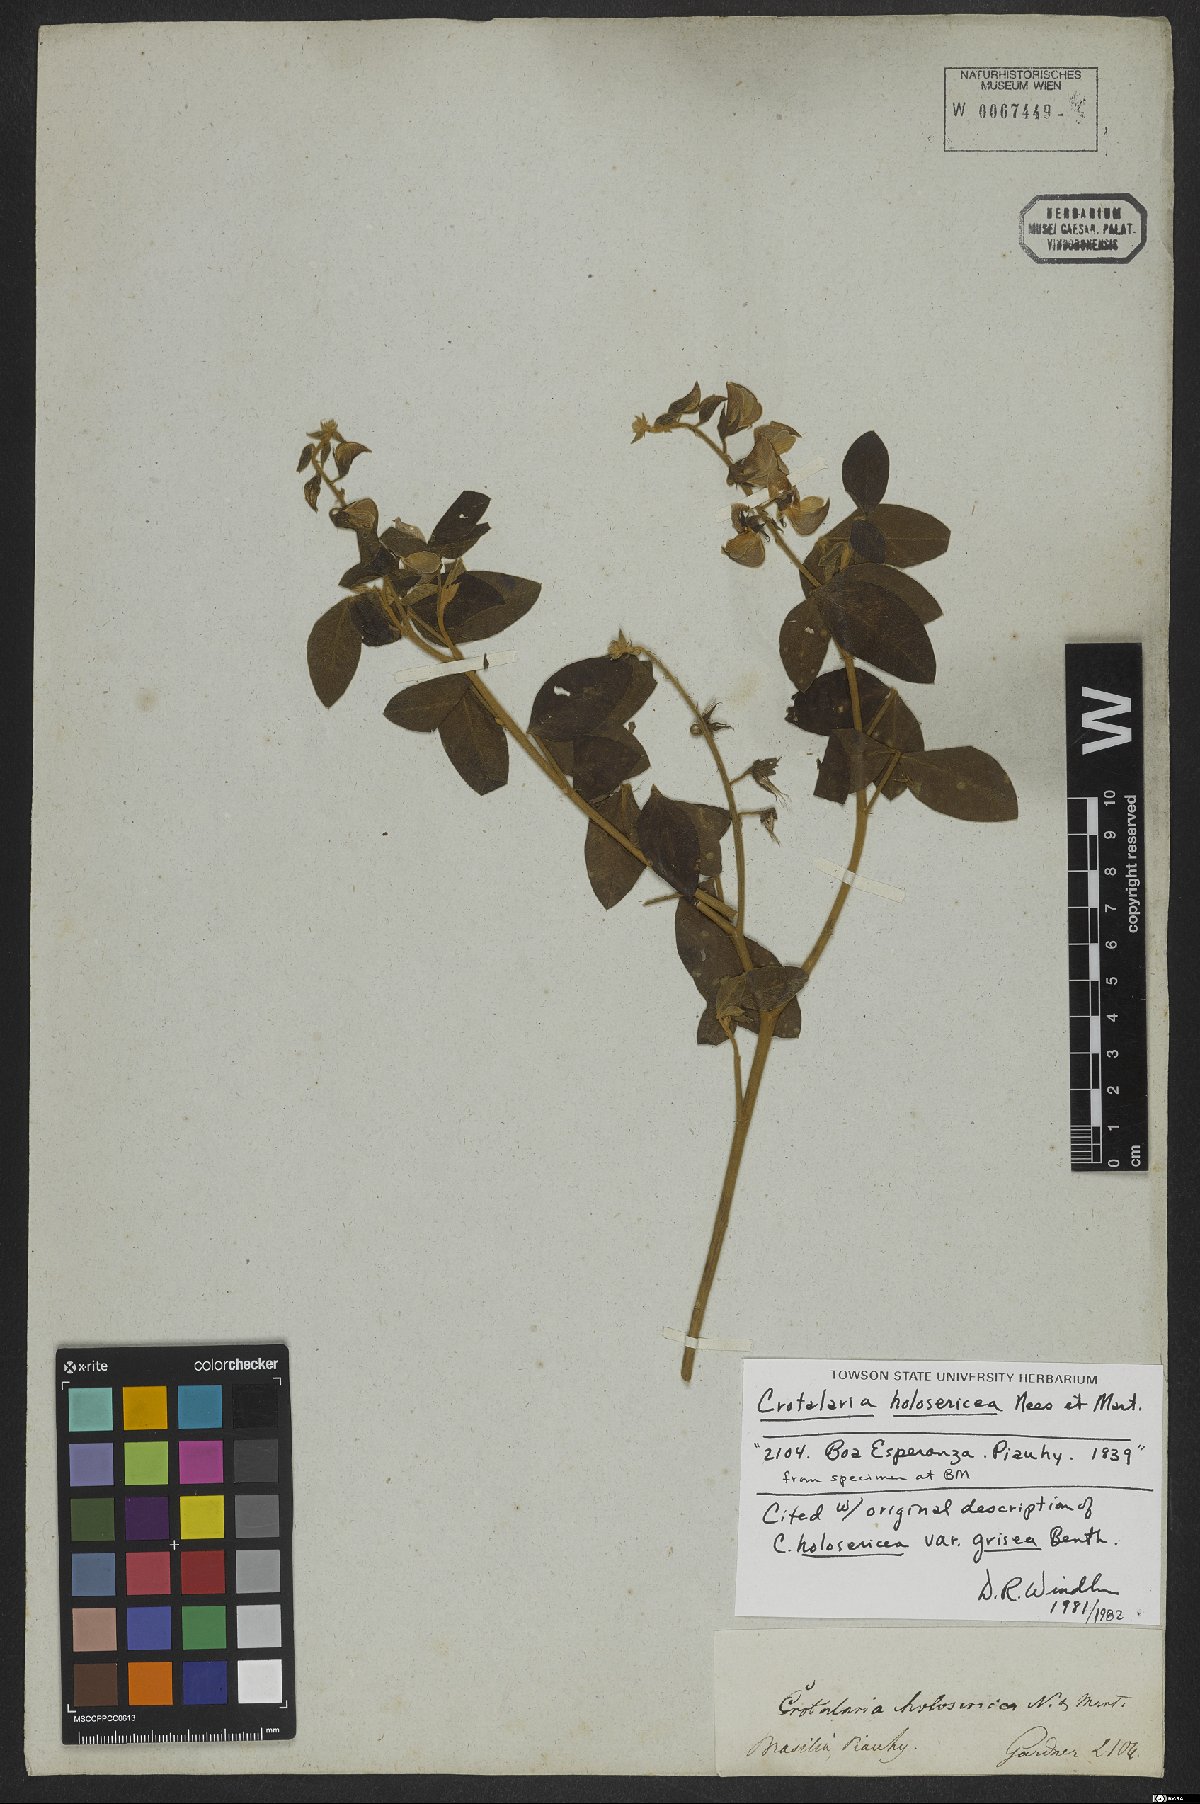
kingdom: Plantae
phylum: Tracheophyta
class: Magnoliopsida
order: Fabales
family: Fabaceae
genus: Crotalaria
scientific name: Crotalaria holosericea
